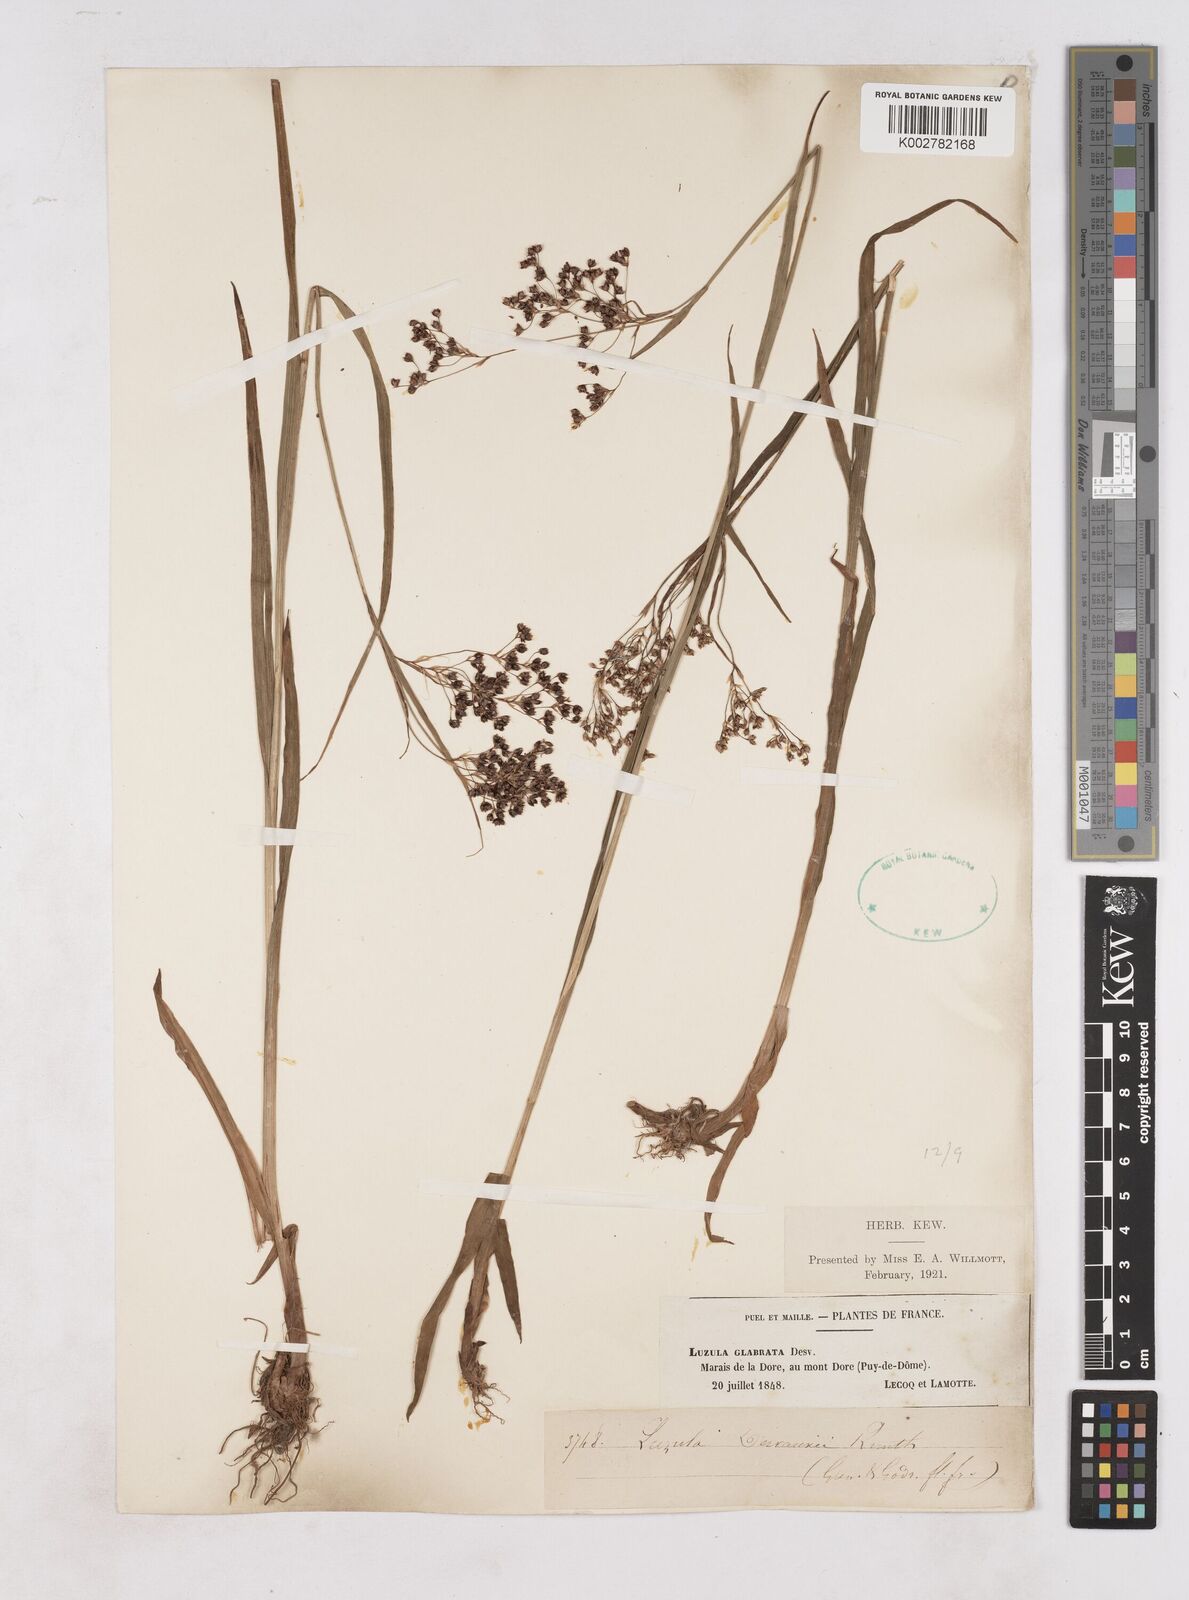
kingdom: Plantae
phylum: Tracheophyta
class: Liliopsida
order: Poales
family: Juncaceae
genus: Luzula
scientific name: Luzula glabrata
